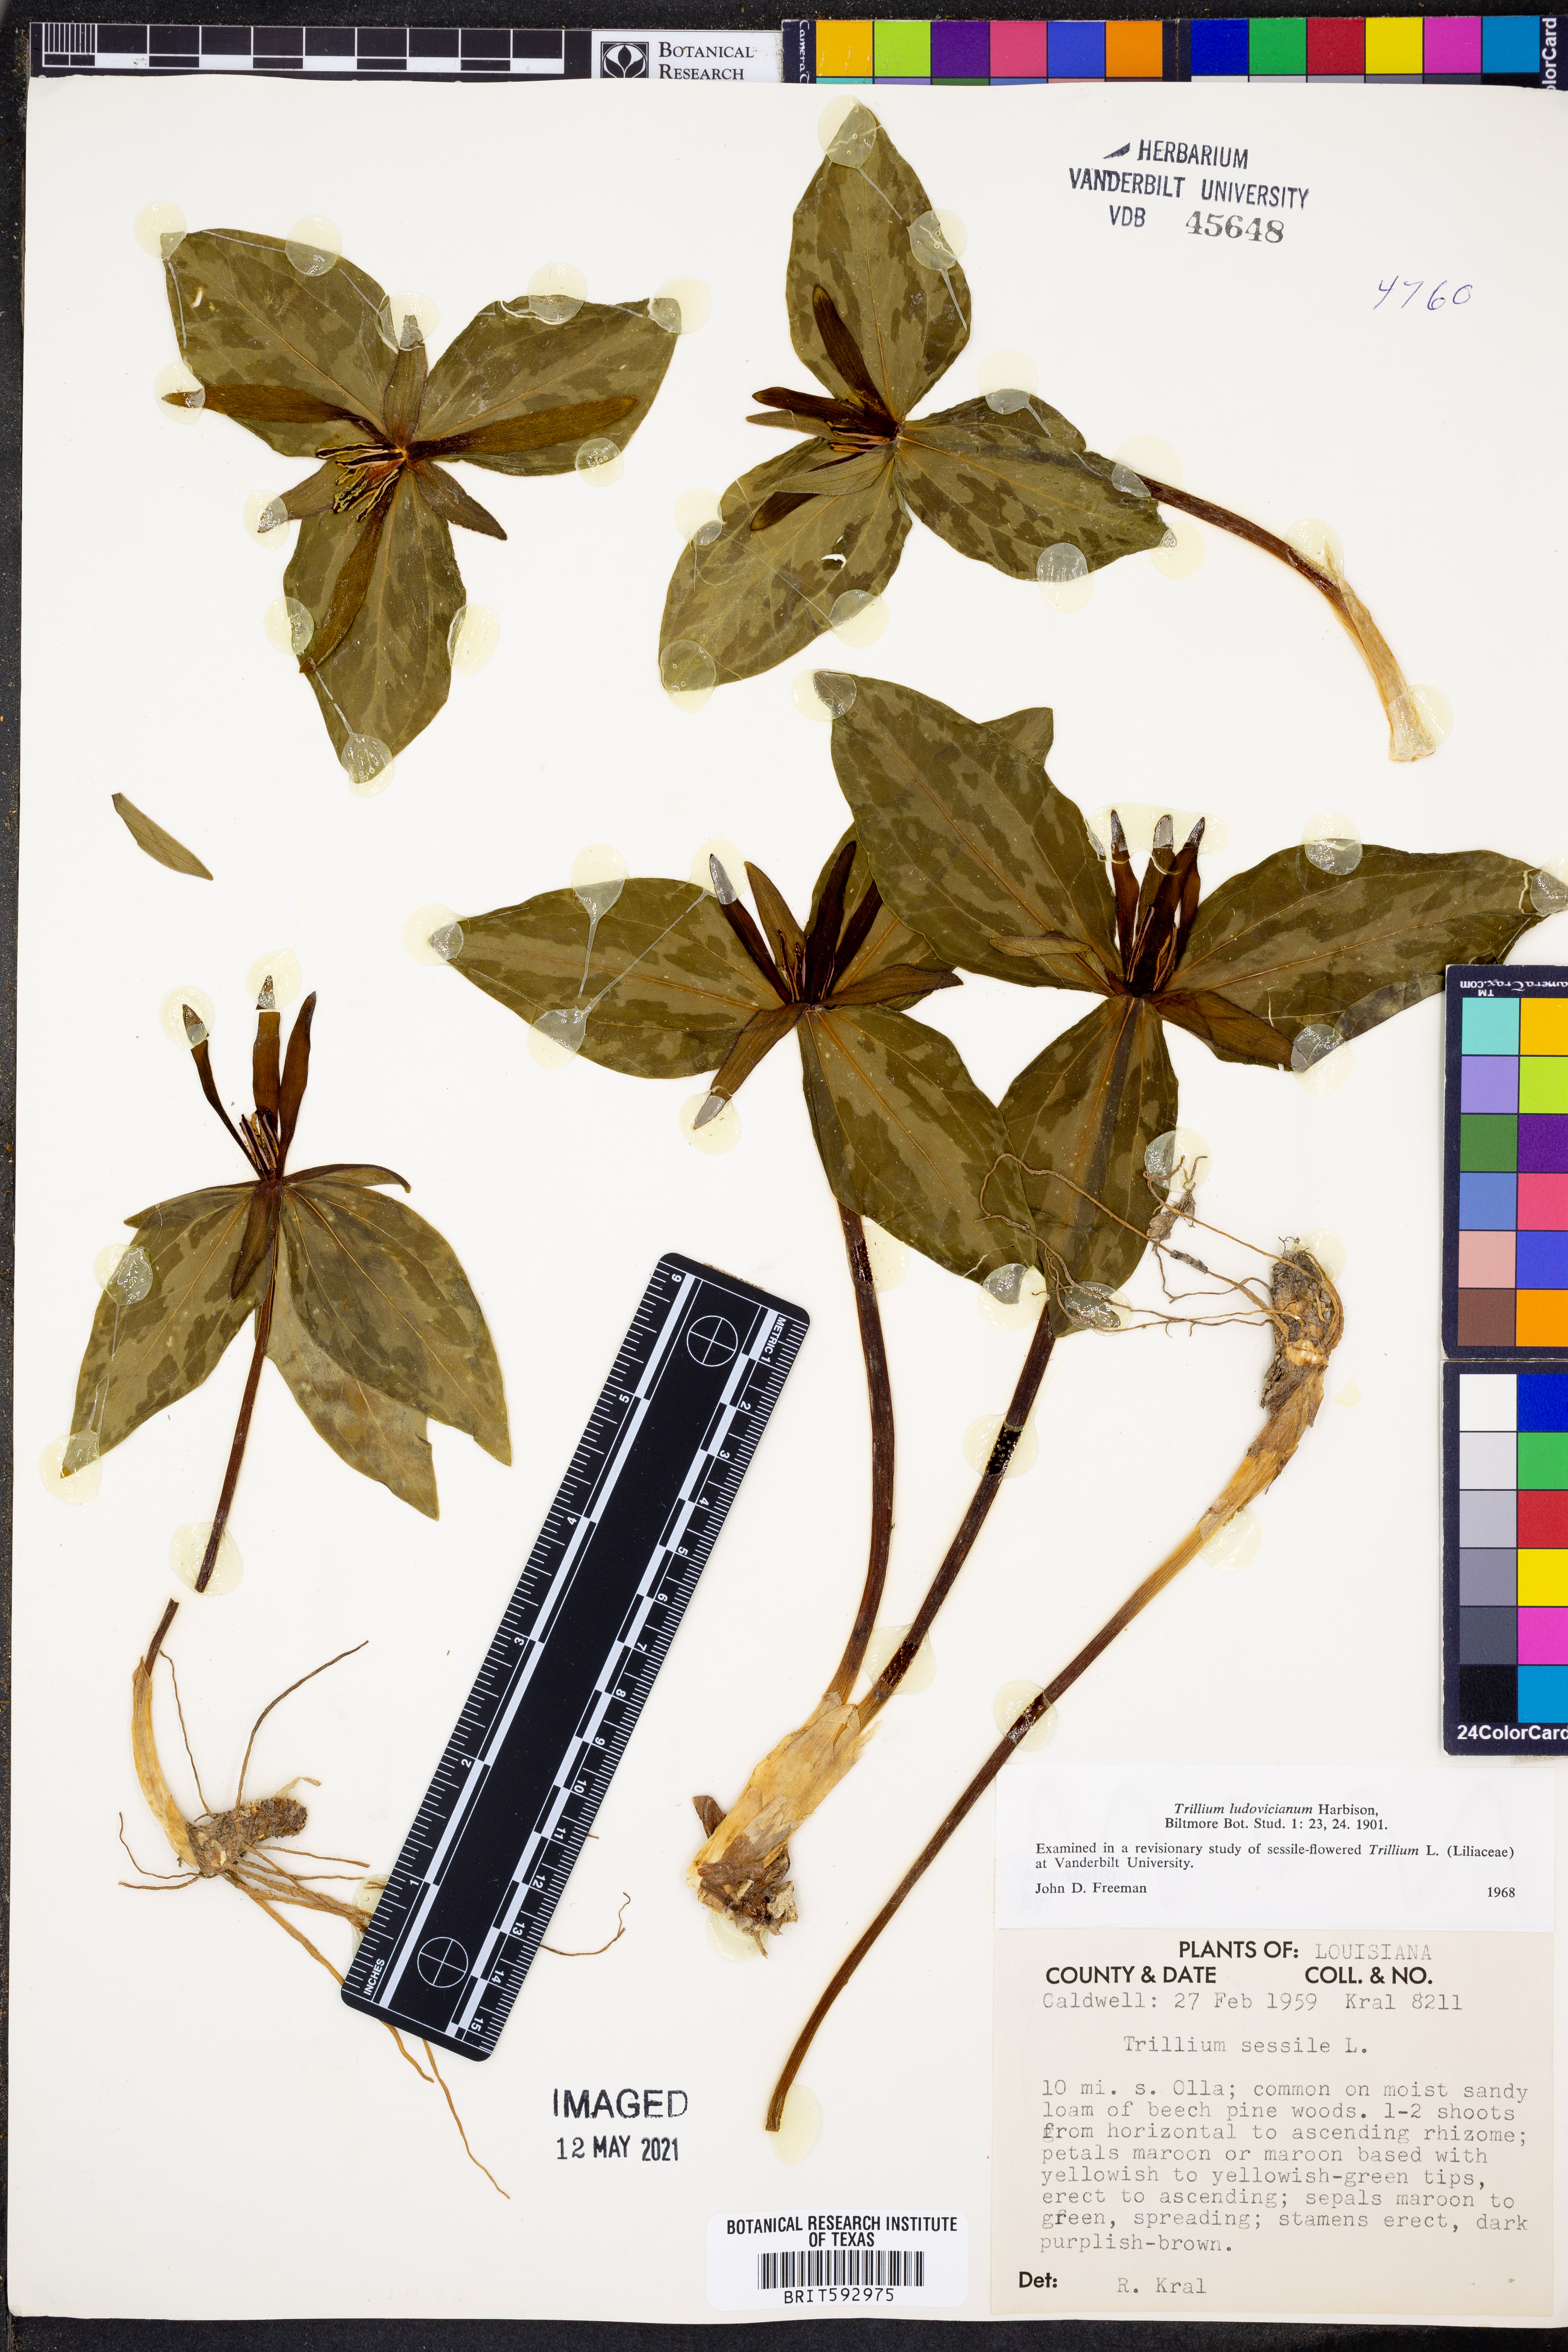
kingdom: Plantae
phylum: Tracheophyta
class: Liliopsida
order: Liliales
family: Melanthiaceae
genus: Trillium
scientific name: Trillium ludovicianum
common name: Louisiana toadshade
